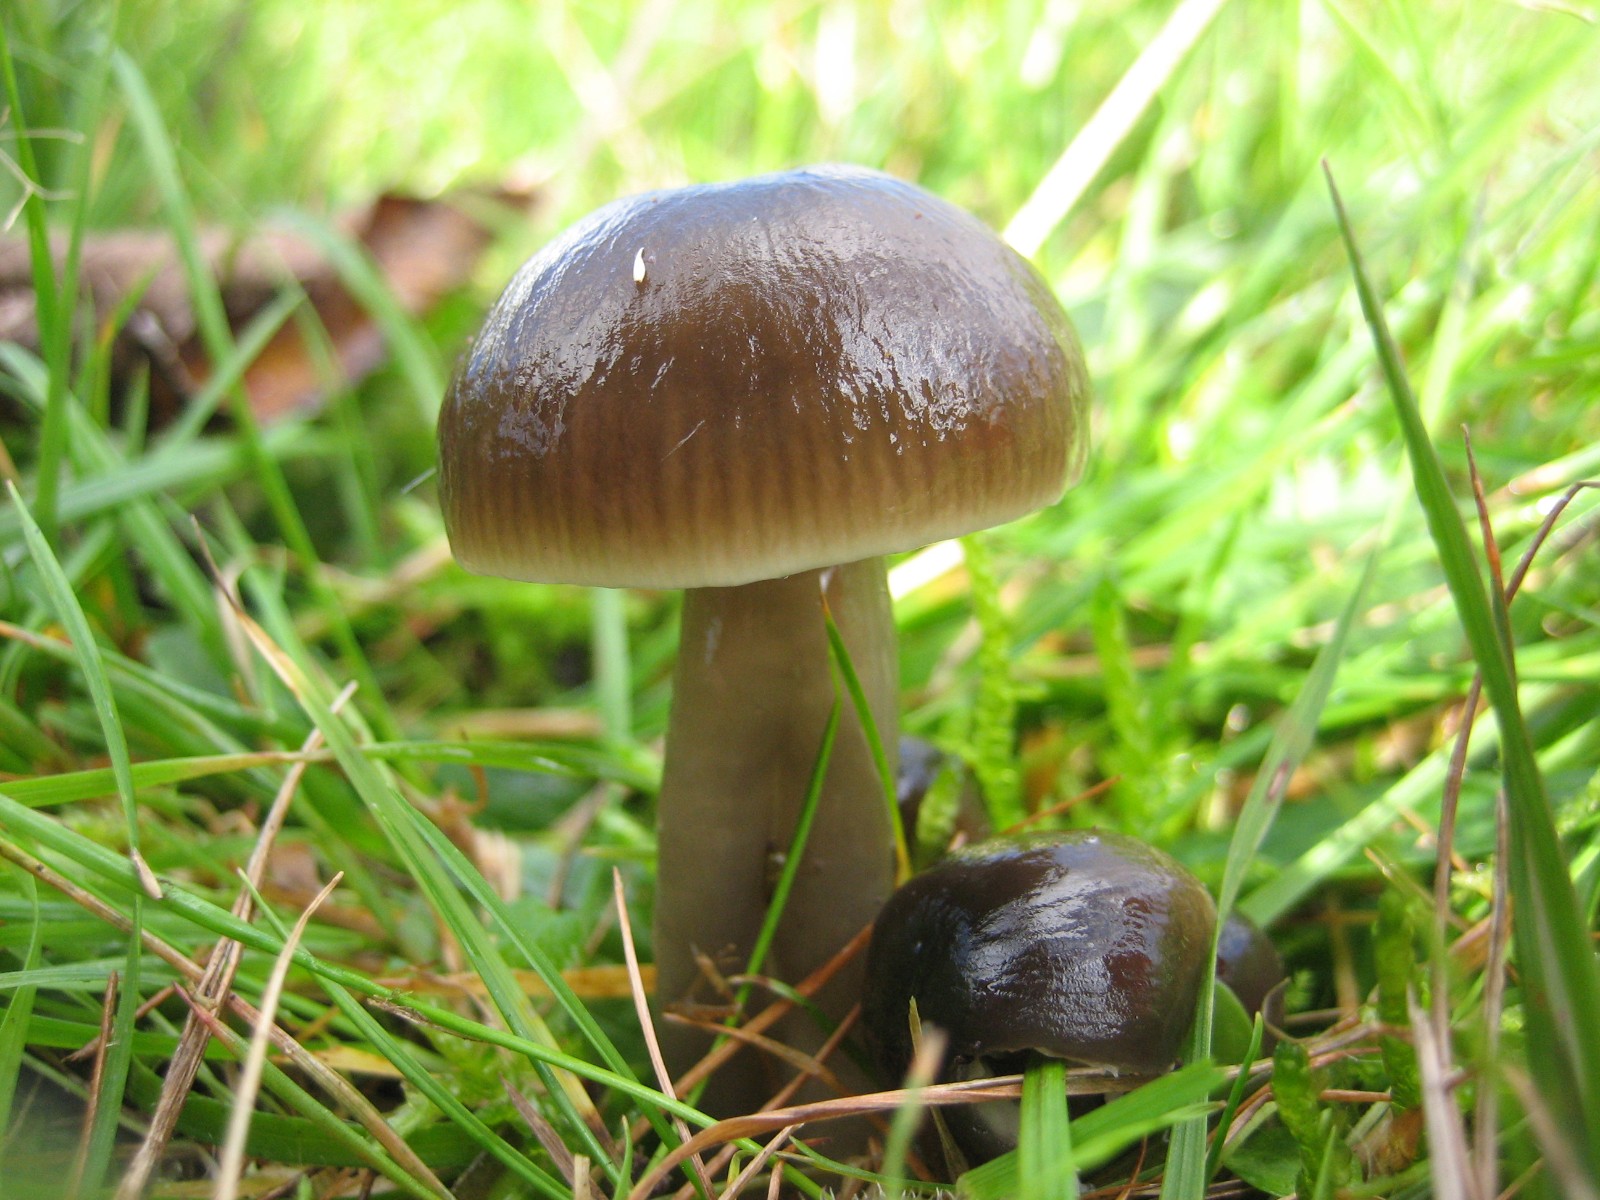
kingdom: Fungi
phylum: Basidiomycota
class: Agaricomycetes
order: Agaricales
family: Hygrophoraceae
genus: Gliophorus
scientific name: Gliophorus irrigatus
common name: slimet vokshat
